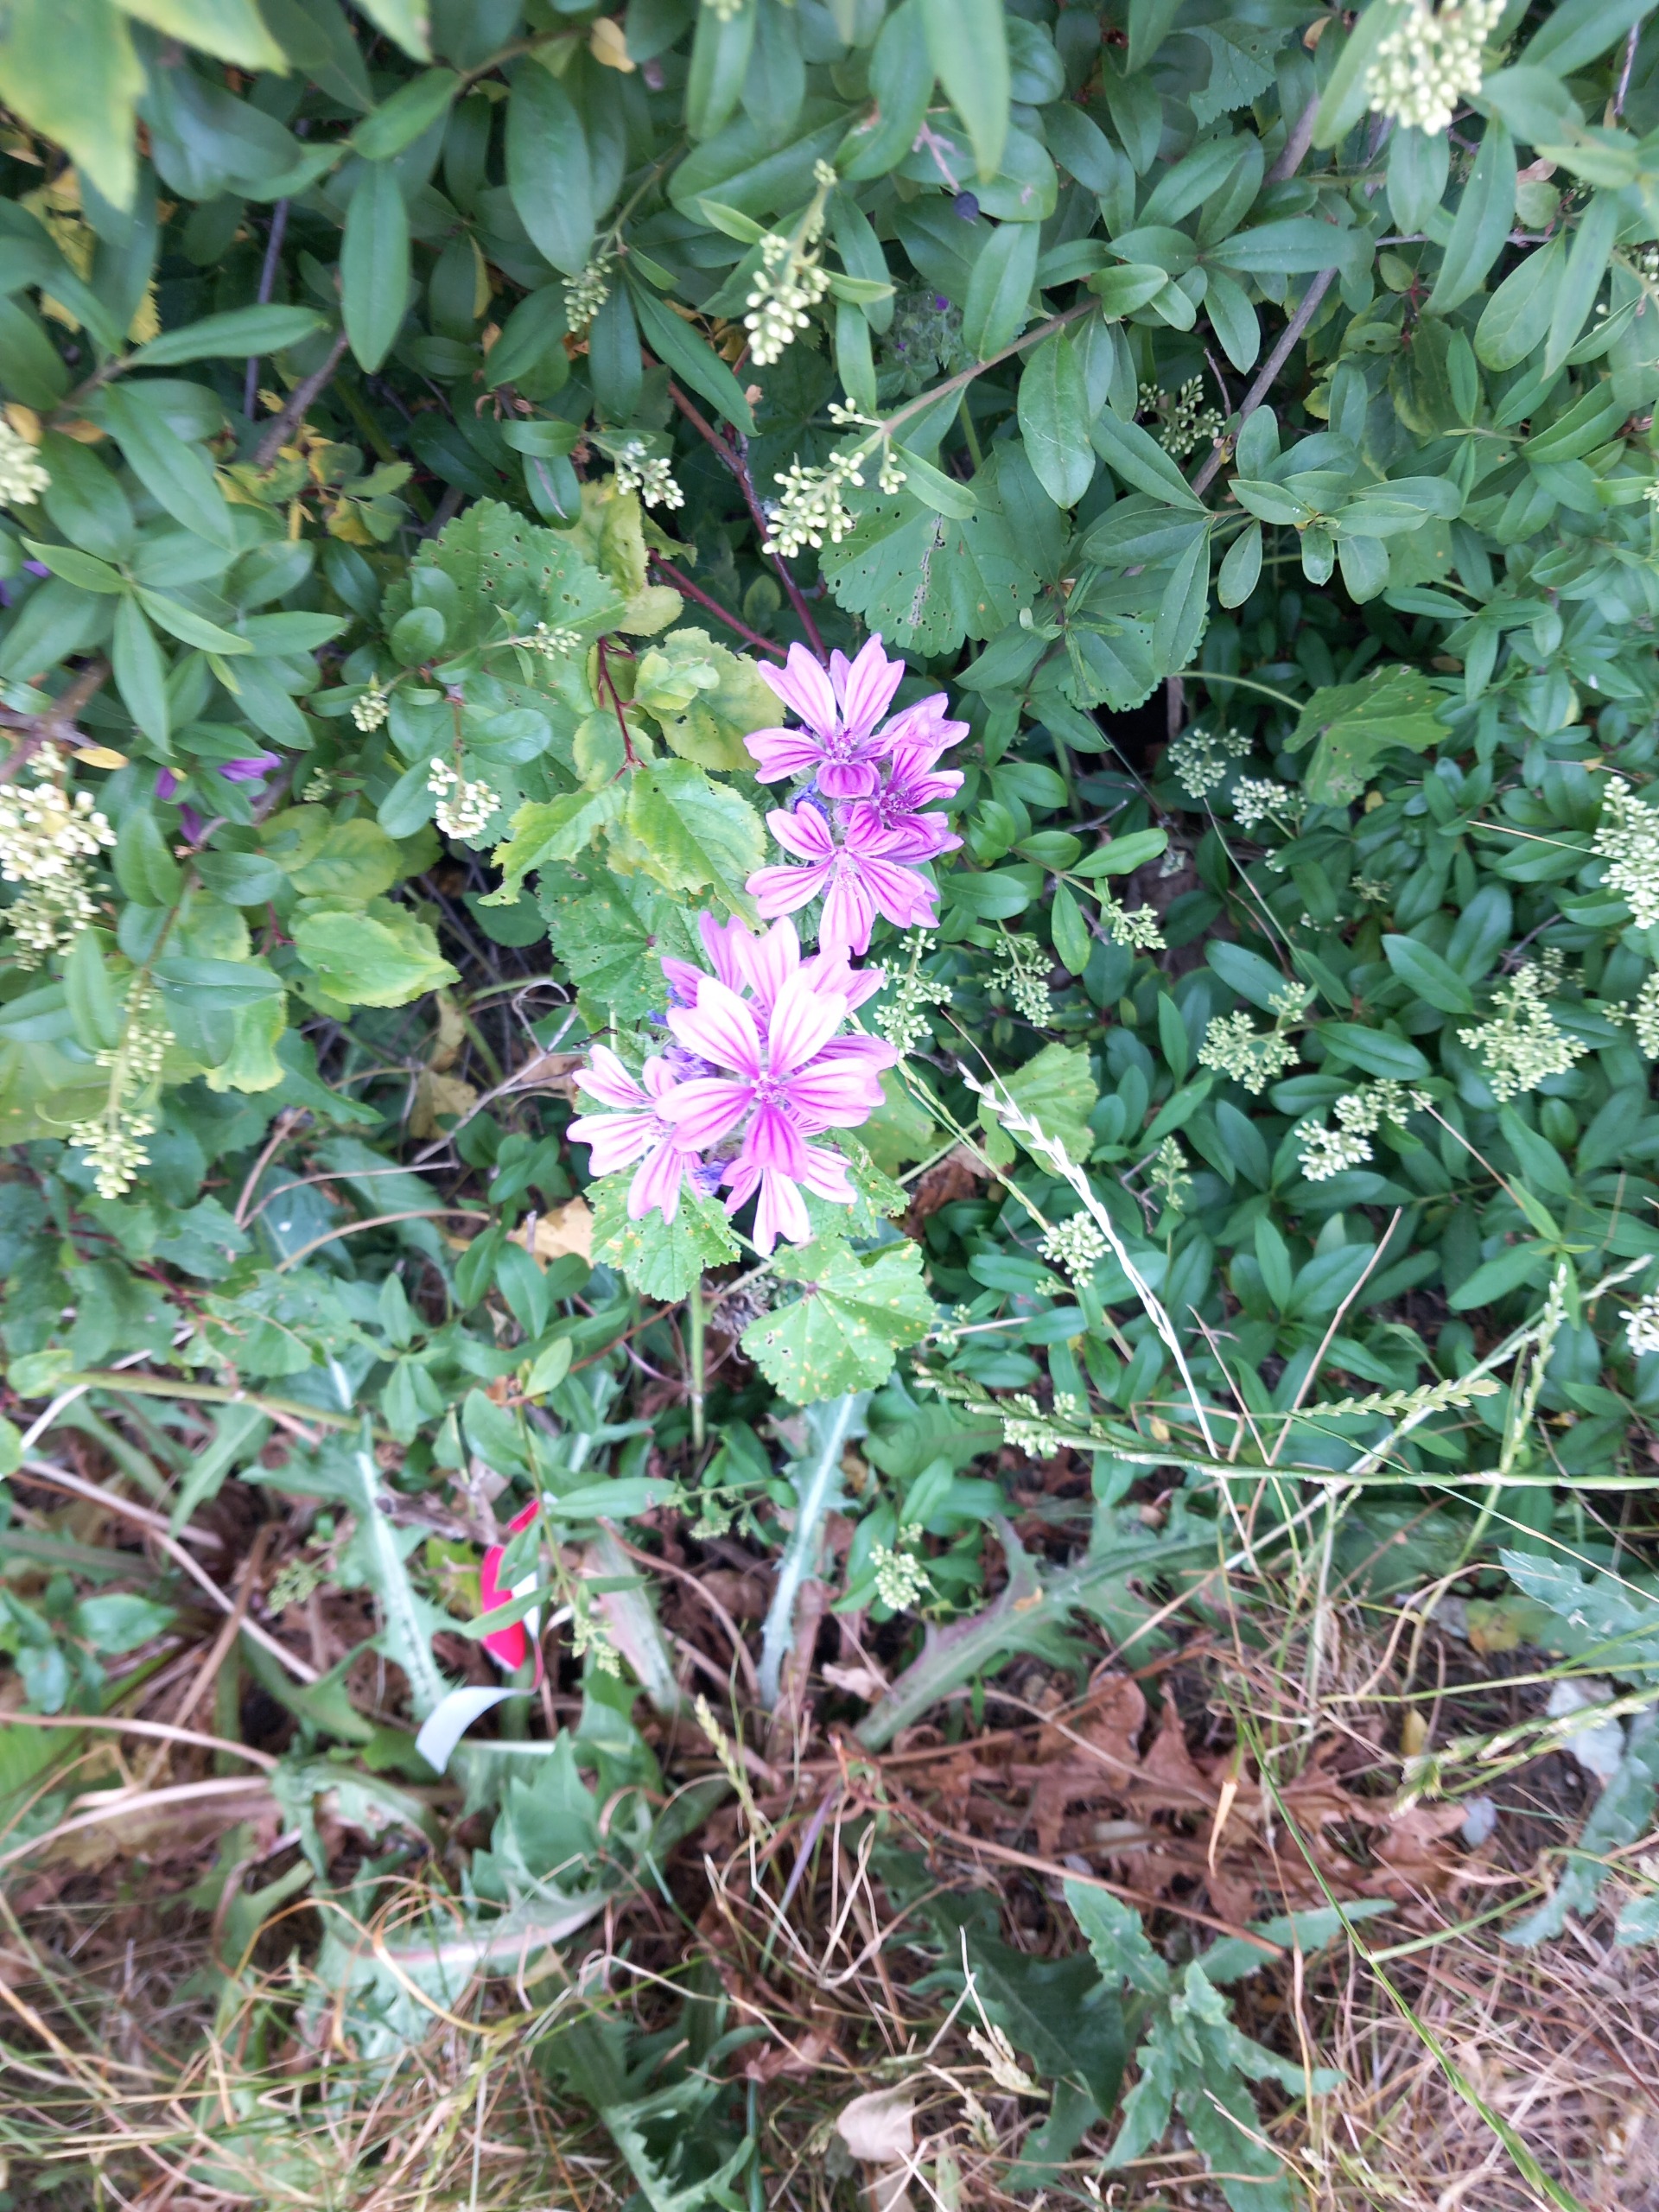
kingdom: Plantae
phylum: Tracheophyta
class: Magnoliopsida
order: Malvales
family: Malvaceae
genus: Malva
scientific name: Malva sylvestris
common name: Almindelig katost
